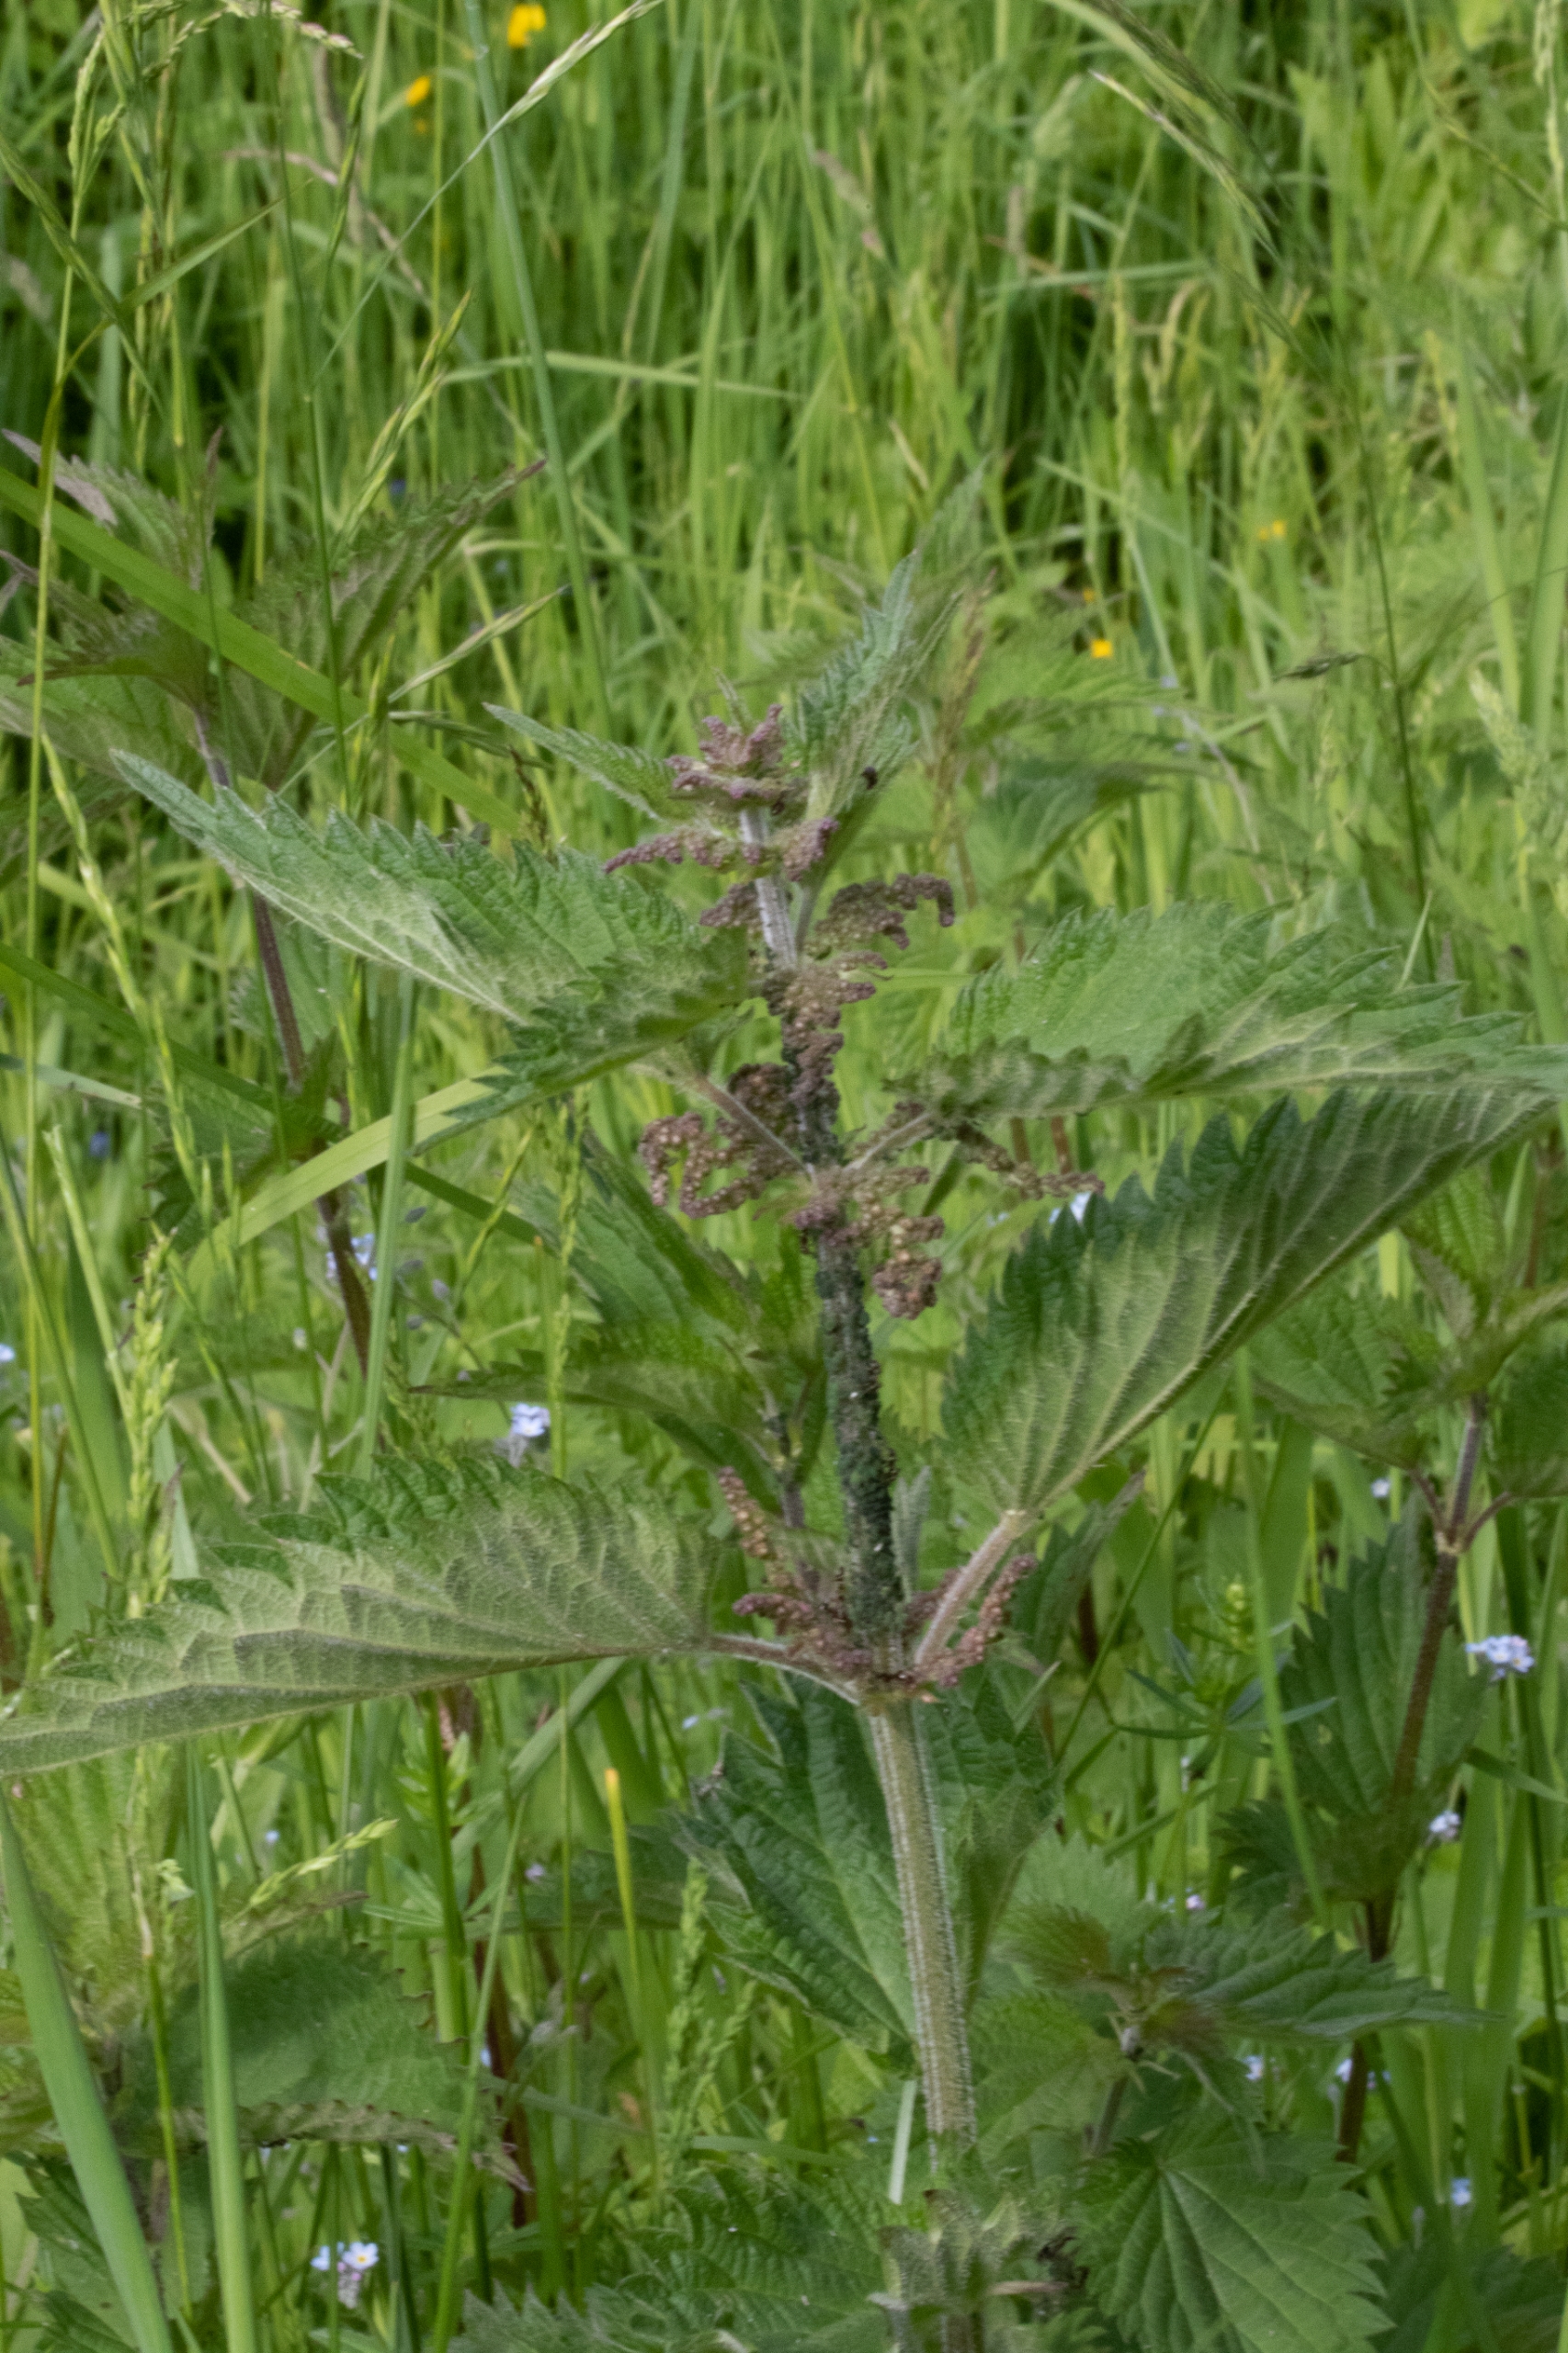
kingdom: Plantae
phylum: Tracheophyta
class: Magnoliopsida
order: Rosales
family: Urticaceae
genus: Urtica
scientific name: Urtica dioica
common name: Stor nælde
